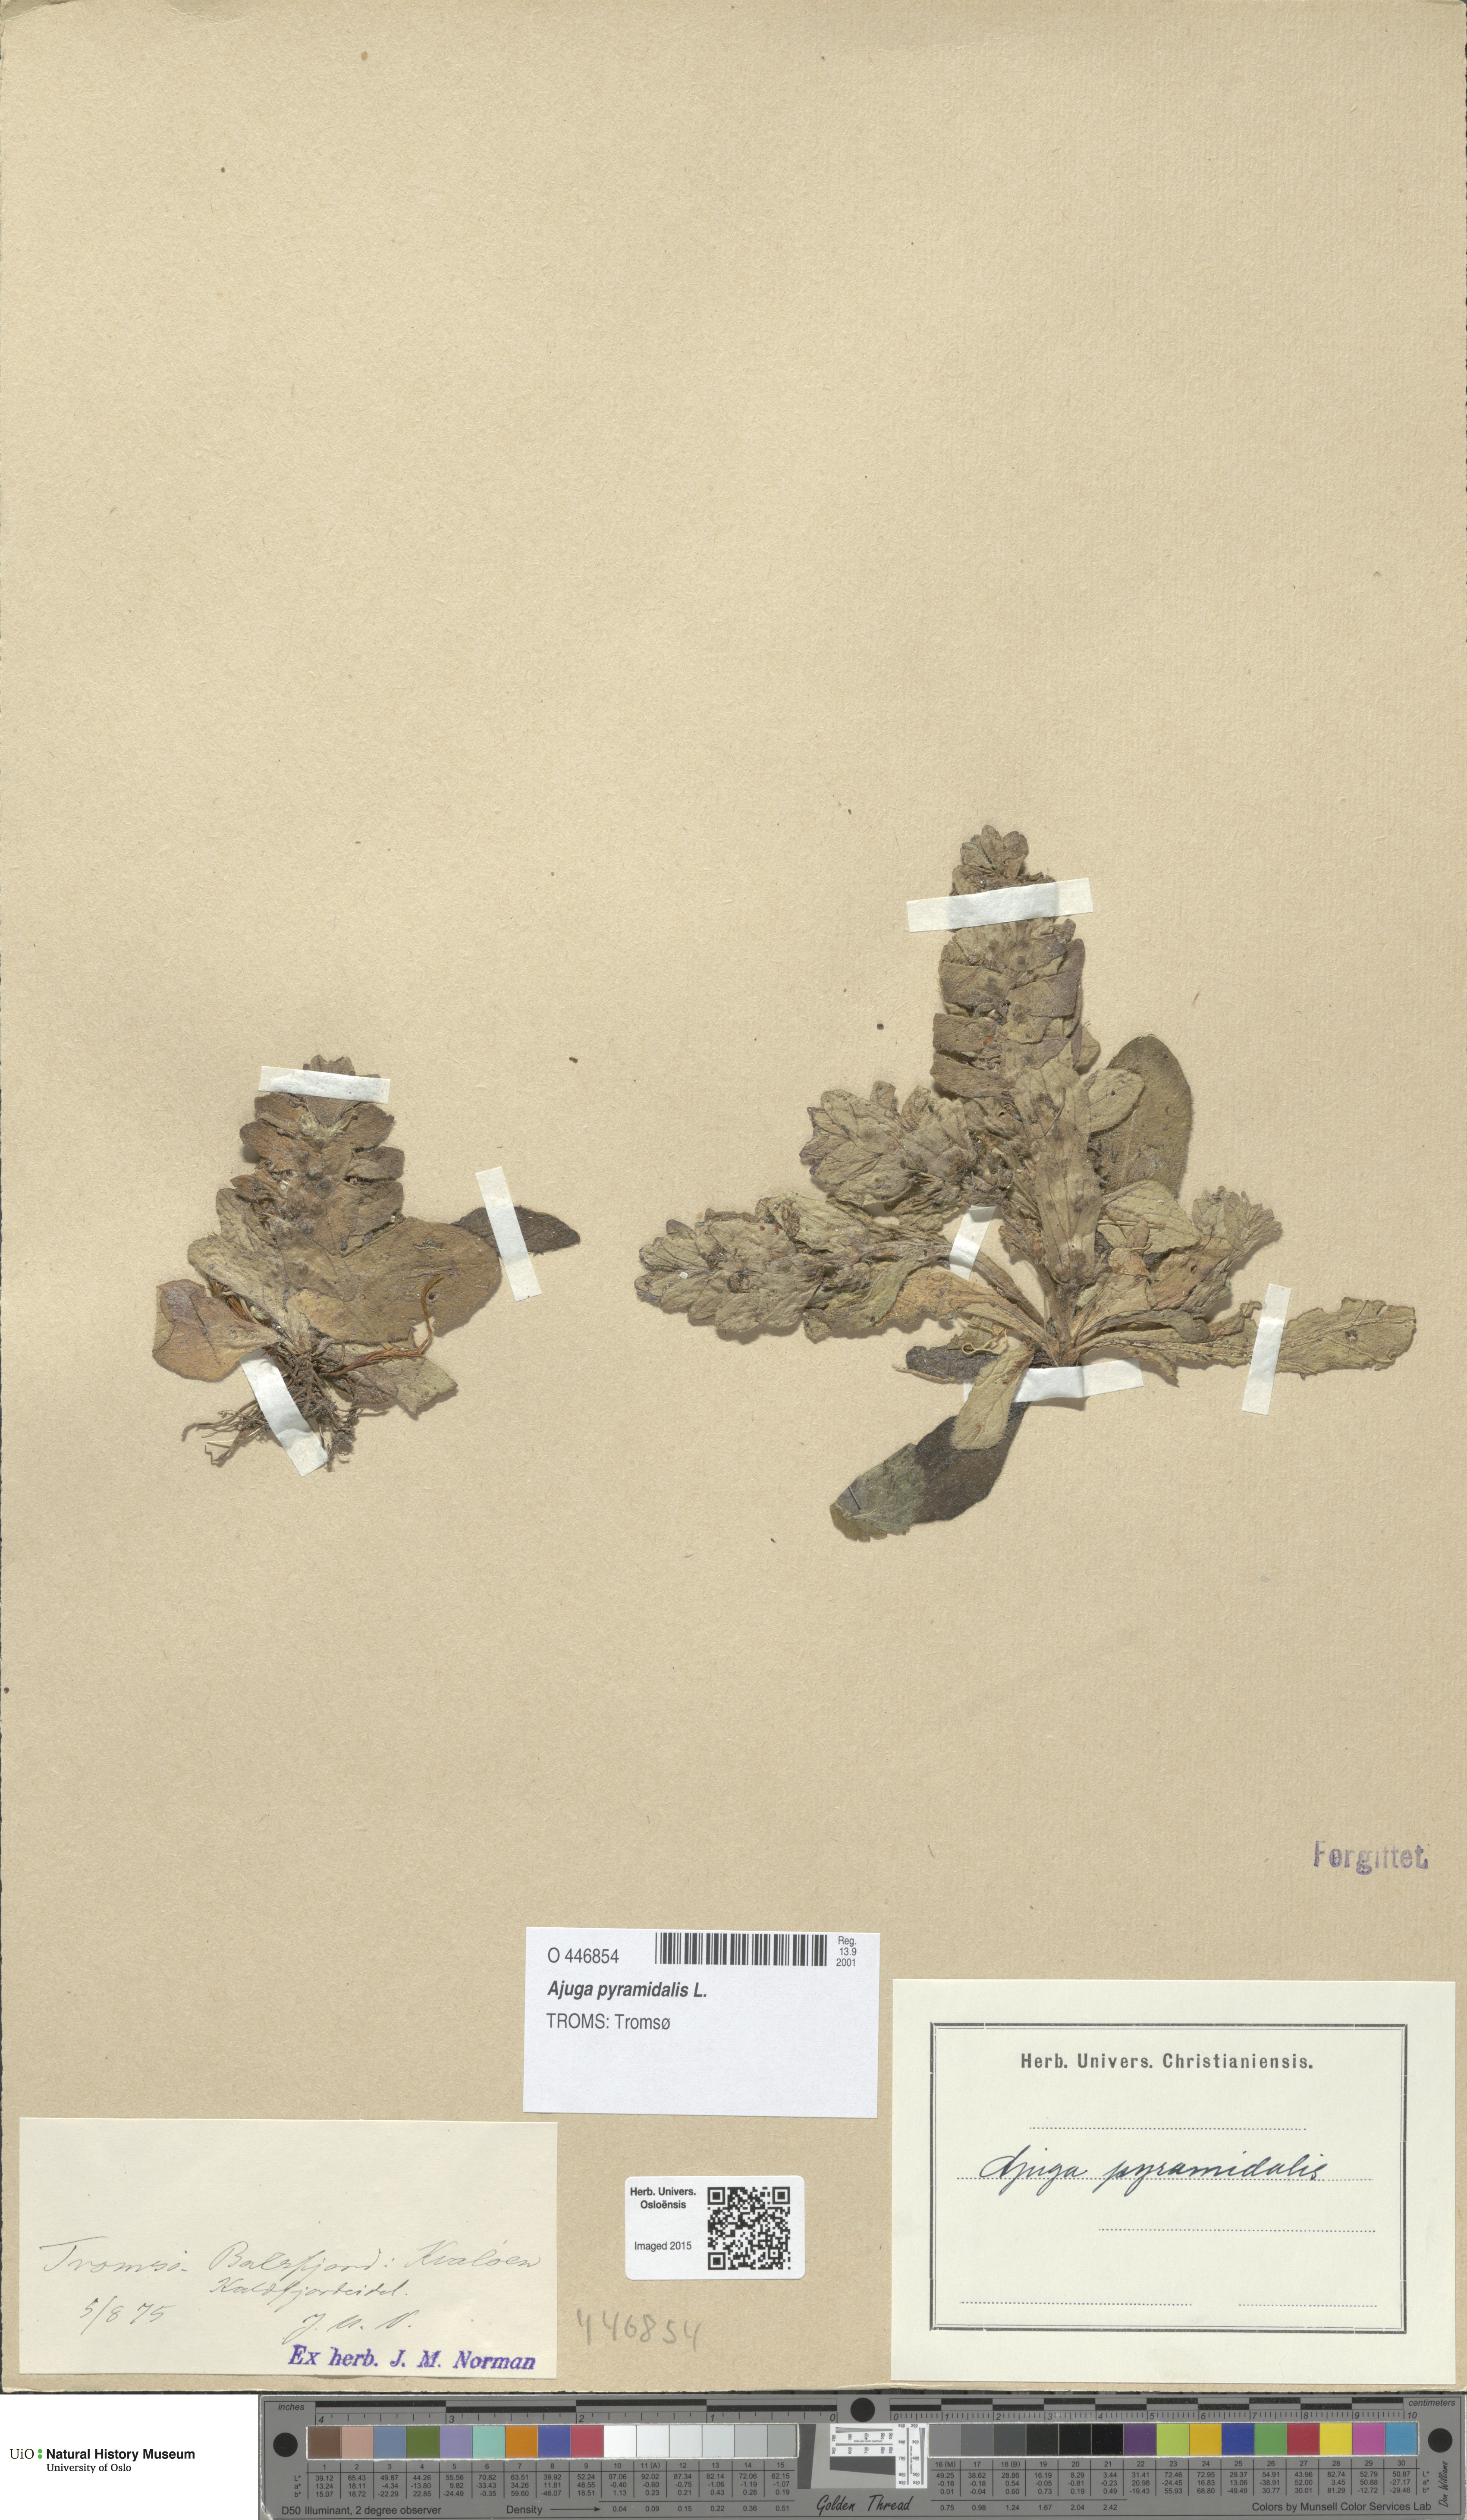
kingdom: Plantae
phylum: Tracheophyta
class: Magnoliopsida
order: Lamiales
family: Lamiaceae
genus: Ajuga
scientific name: Ajuga pyramidalis
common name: Pyramid bugle
